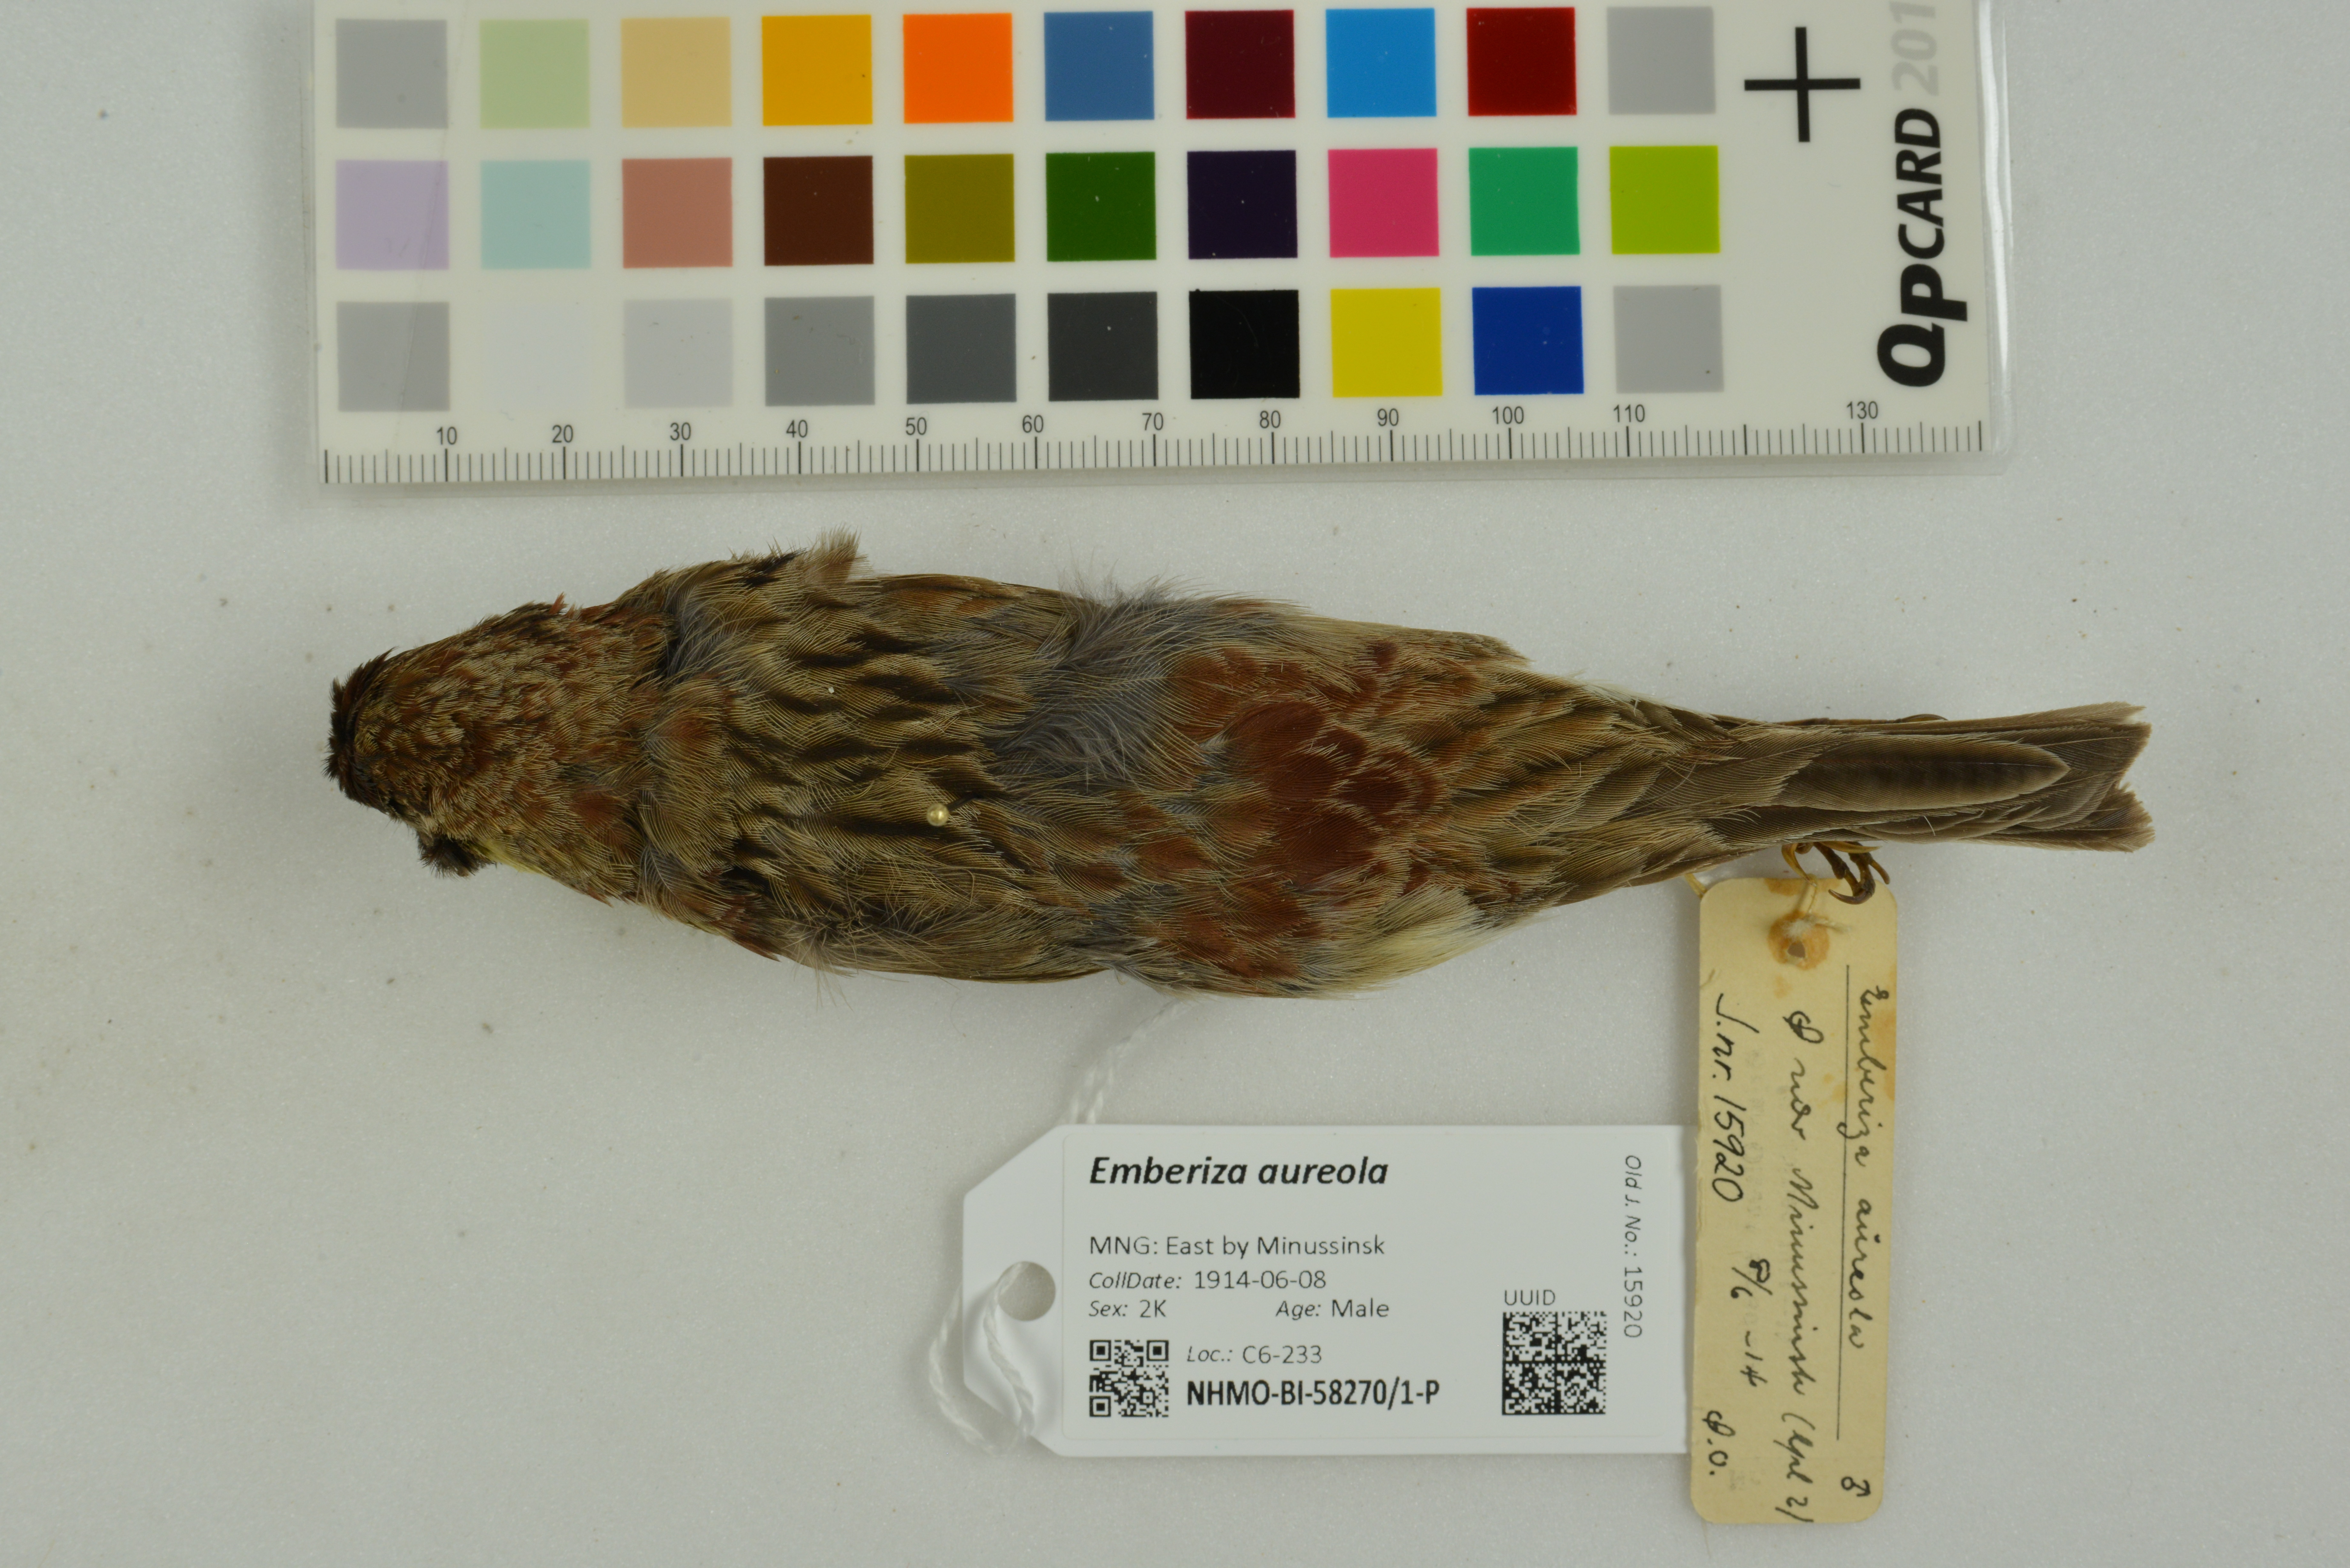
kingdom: Animalia
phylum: Chordata
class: Aves
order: Passeriformes
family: Emberizidae
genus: Emberiza
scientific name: Emberiza aureola
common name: Yellow-breasted bunting
